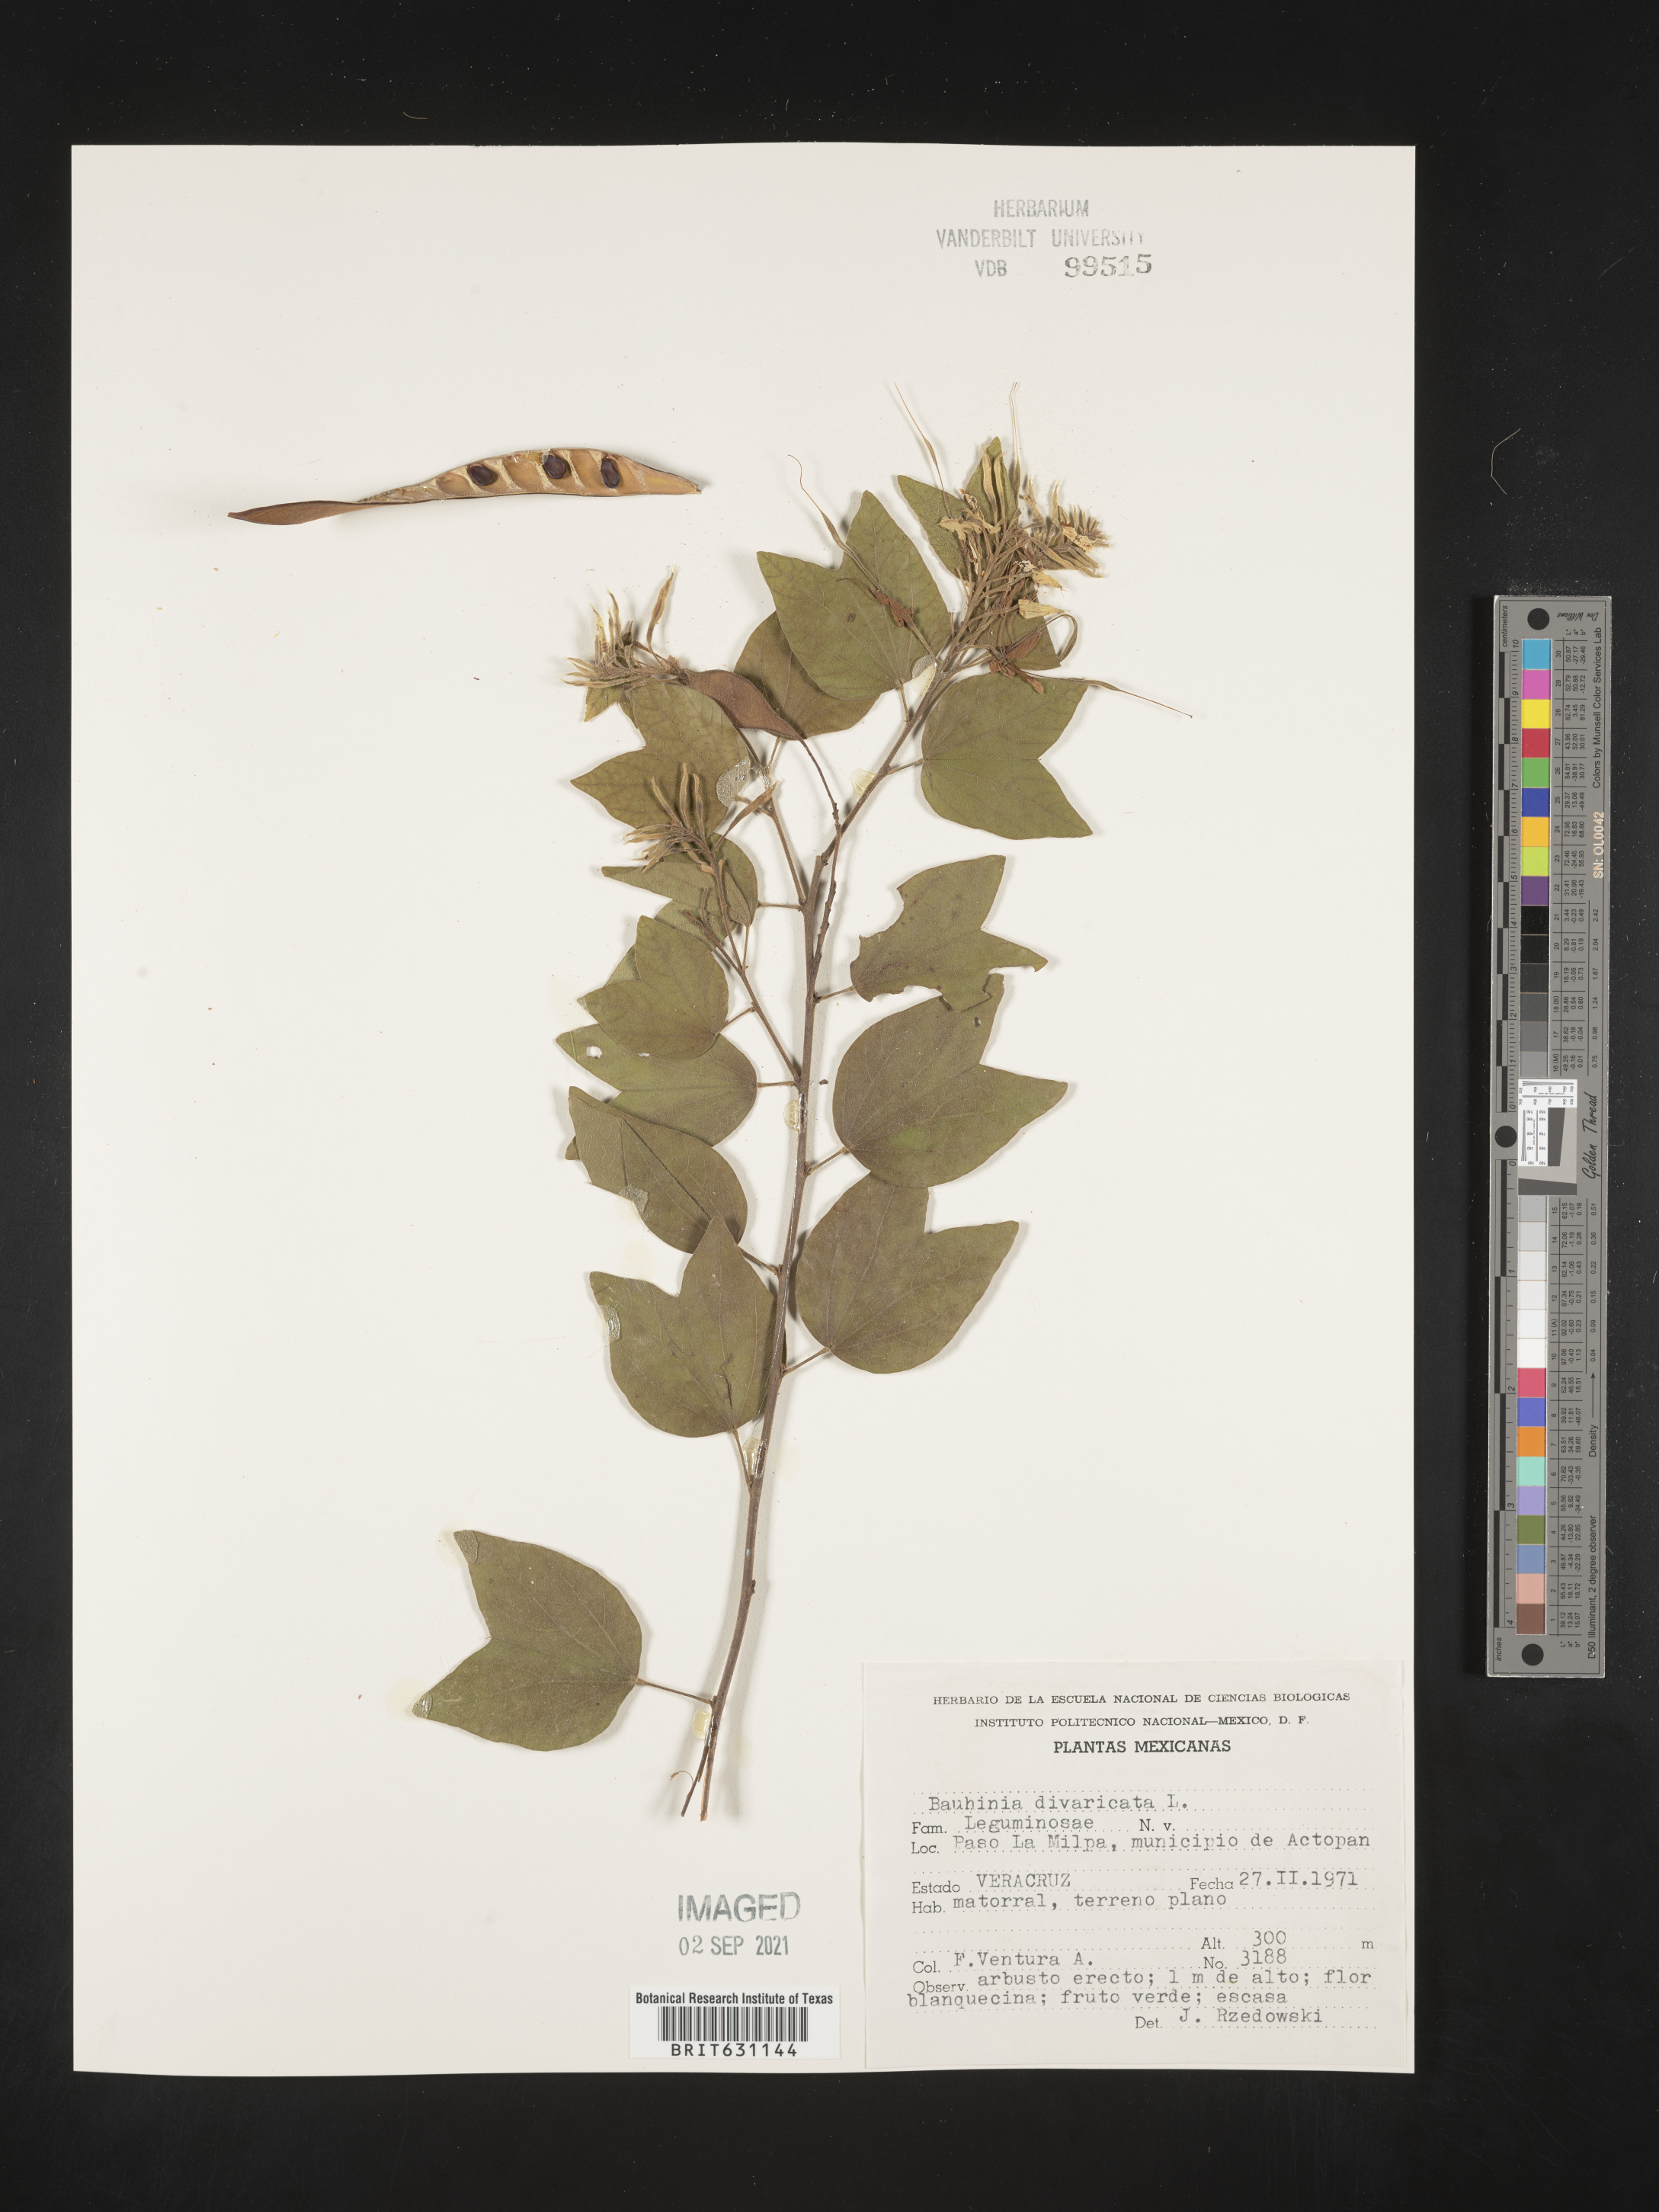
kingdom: Plantae
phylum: Tracheophyta
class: Magnoliopsida
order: Fabales
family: Fabaceae
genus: Bauhinia
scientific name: Bauhinia
